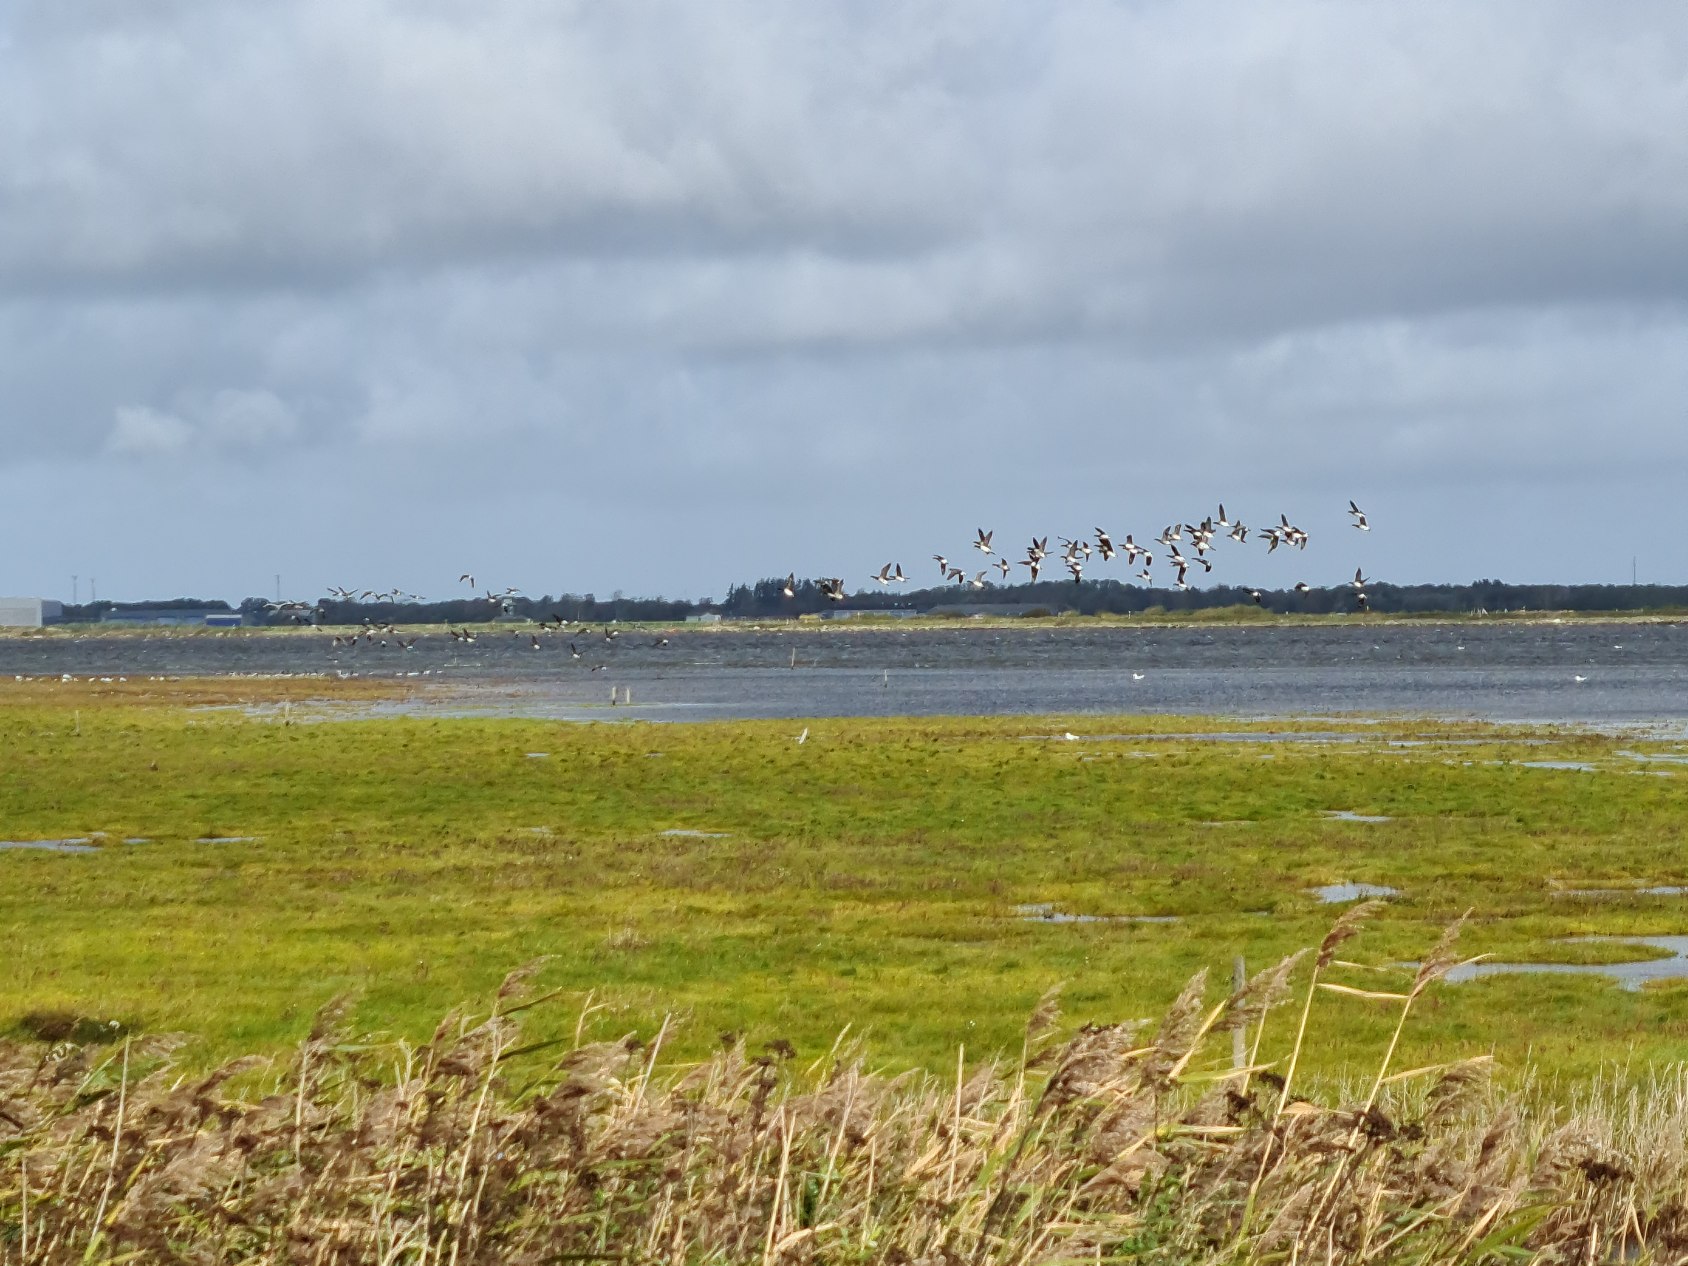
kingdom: Animalia
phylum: Chordata
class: Aves
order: Anseriformes
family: Anatidae
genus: Branta
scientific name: Branta bernicla
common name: Lysbuget knortegås
